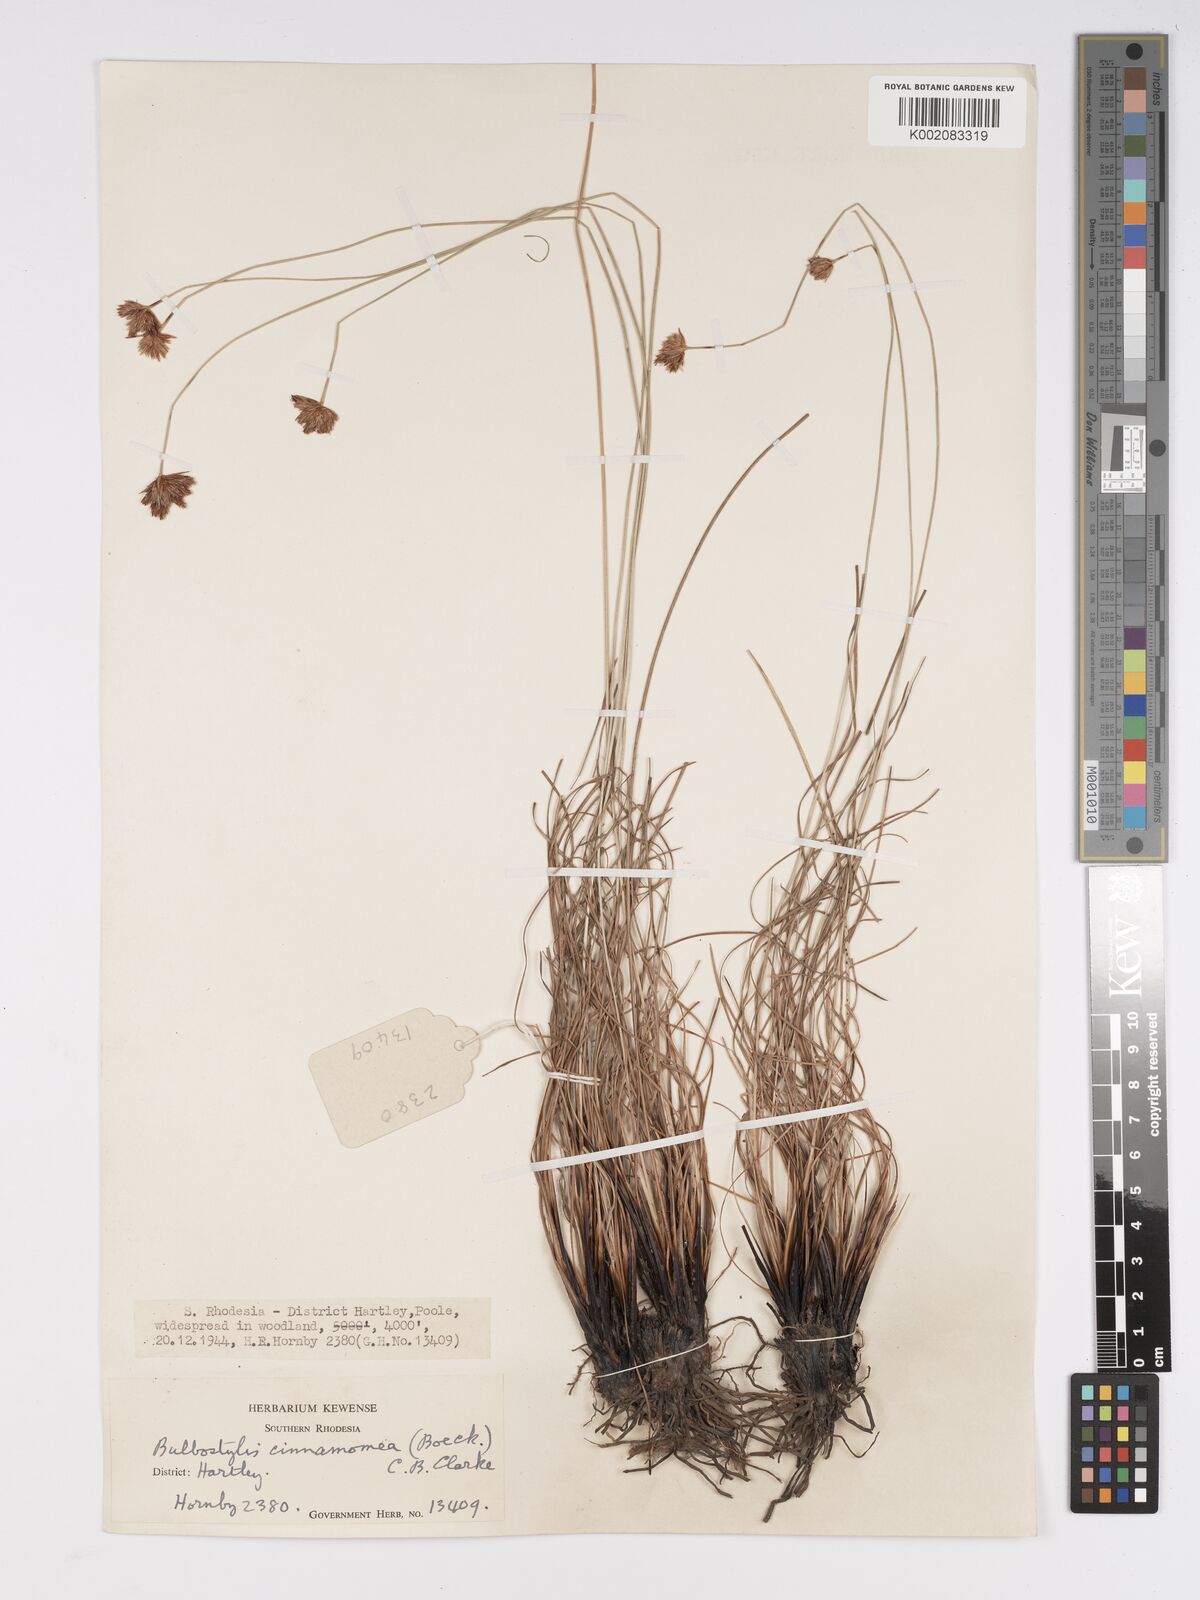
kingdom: Plantae
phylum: Tracheophyta
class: Liliopsida
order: Poales
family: Cyperaceae
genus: Bulbostylis
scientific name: Bulbostylis schoenoides
